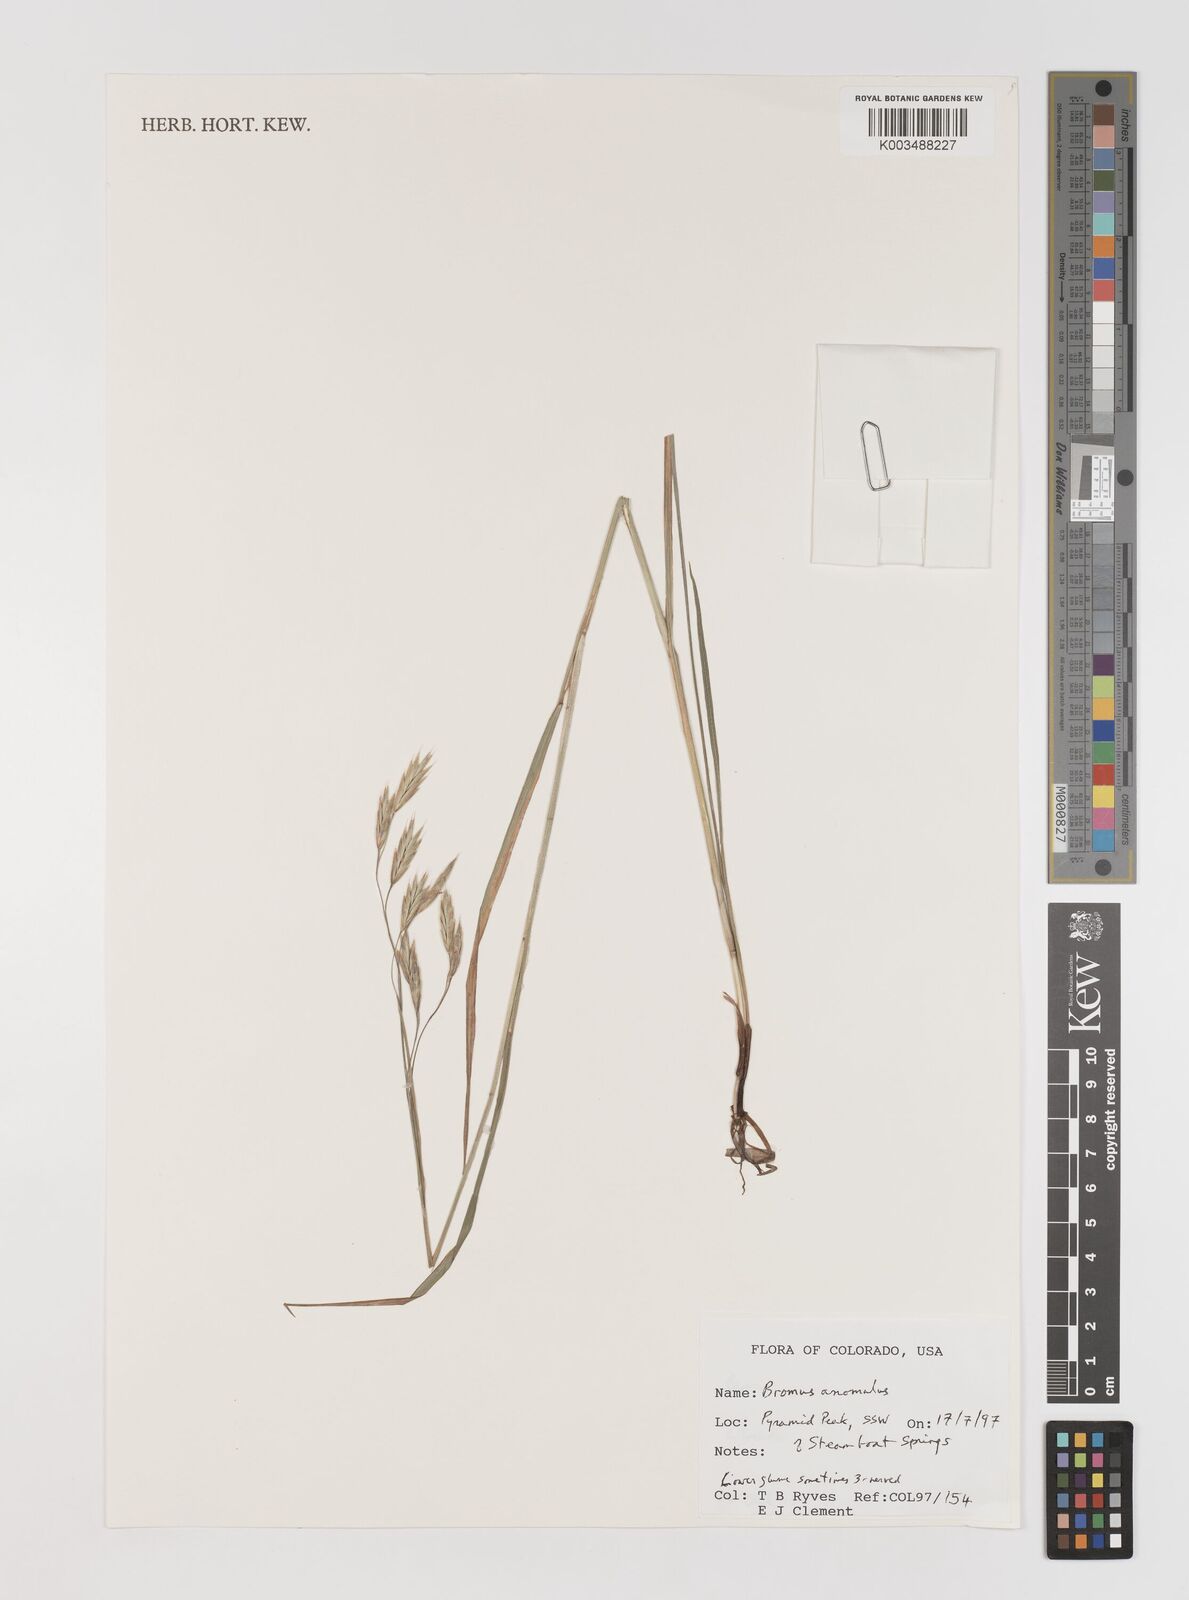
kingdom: Plantae
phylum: Tracheophyta
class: Liliopsida
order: Poales
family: Poaceae
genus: Bromus
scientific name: Bromus anomalus
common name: Nodding brome
